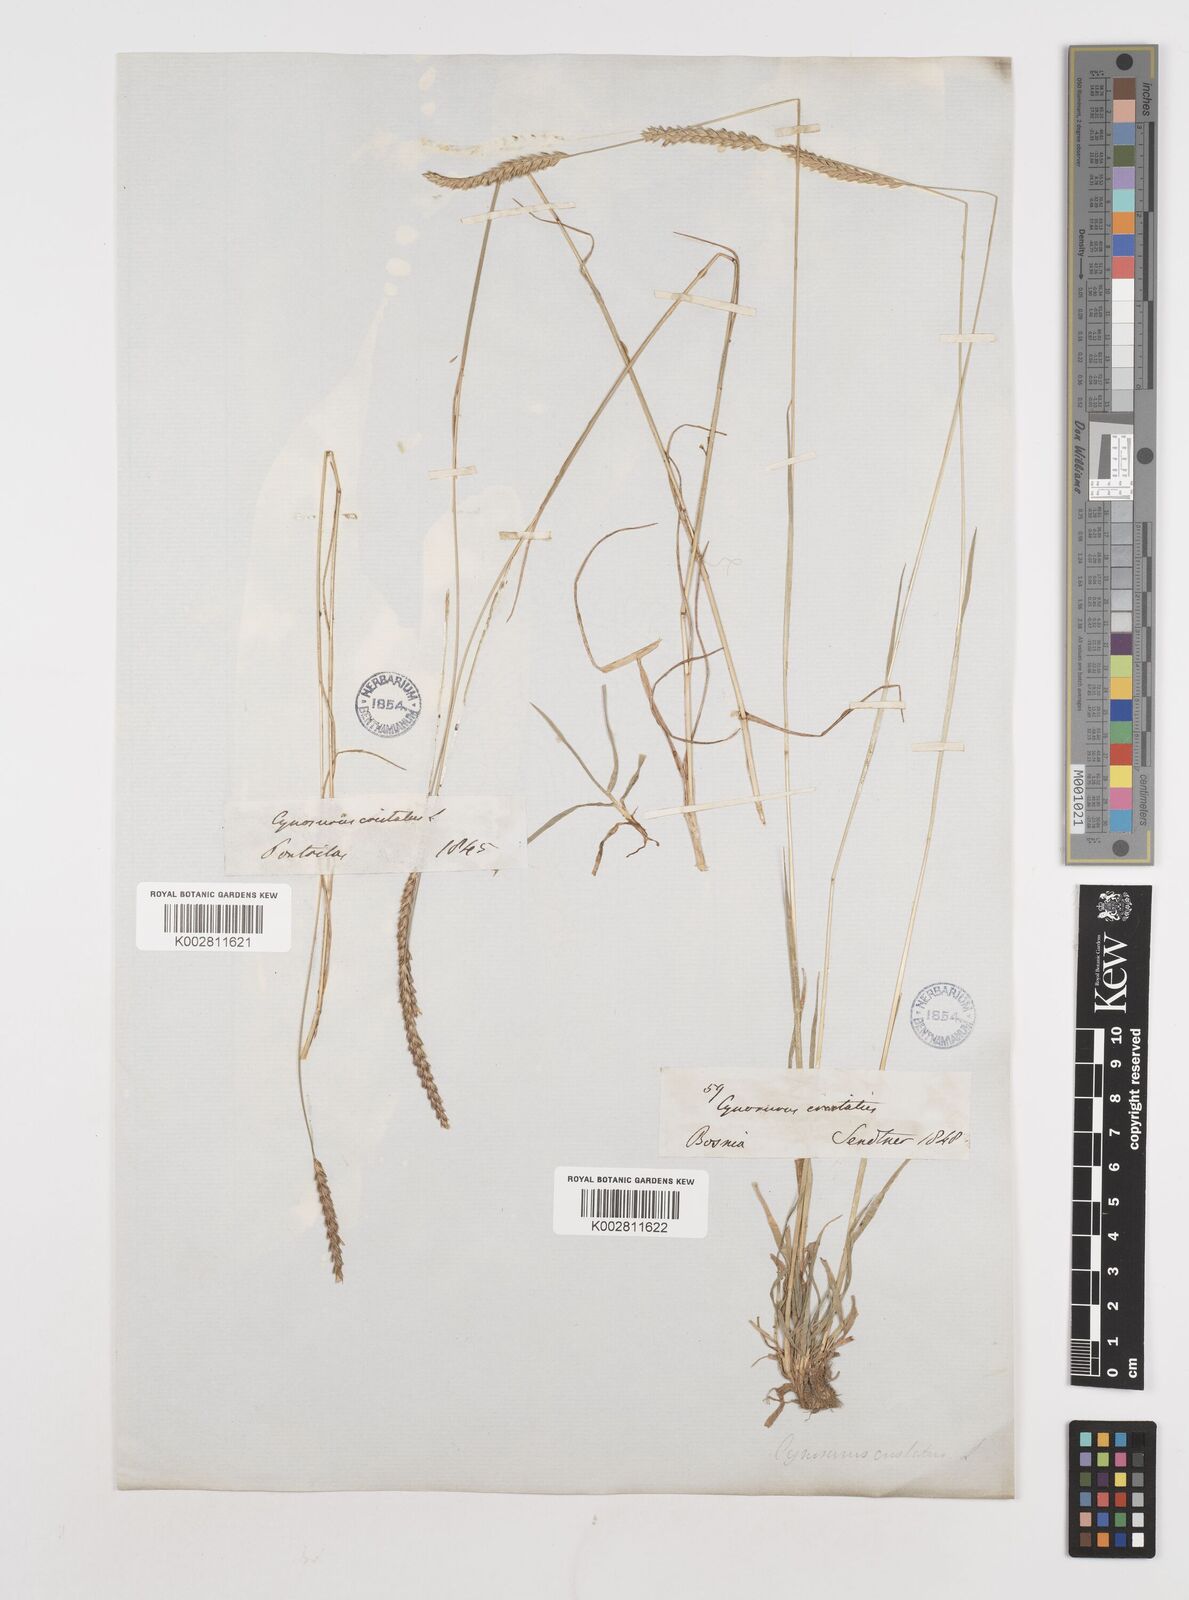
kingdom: Plantae
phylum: Tracheophyta
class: Liliopsida
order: Poales
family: Poaceae
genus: Cynosurus
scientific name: Cynosurus cristatus
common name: Crested dog's-tail
